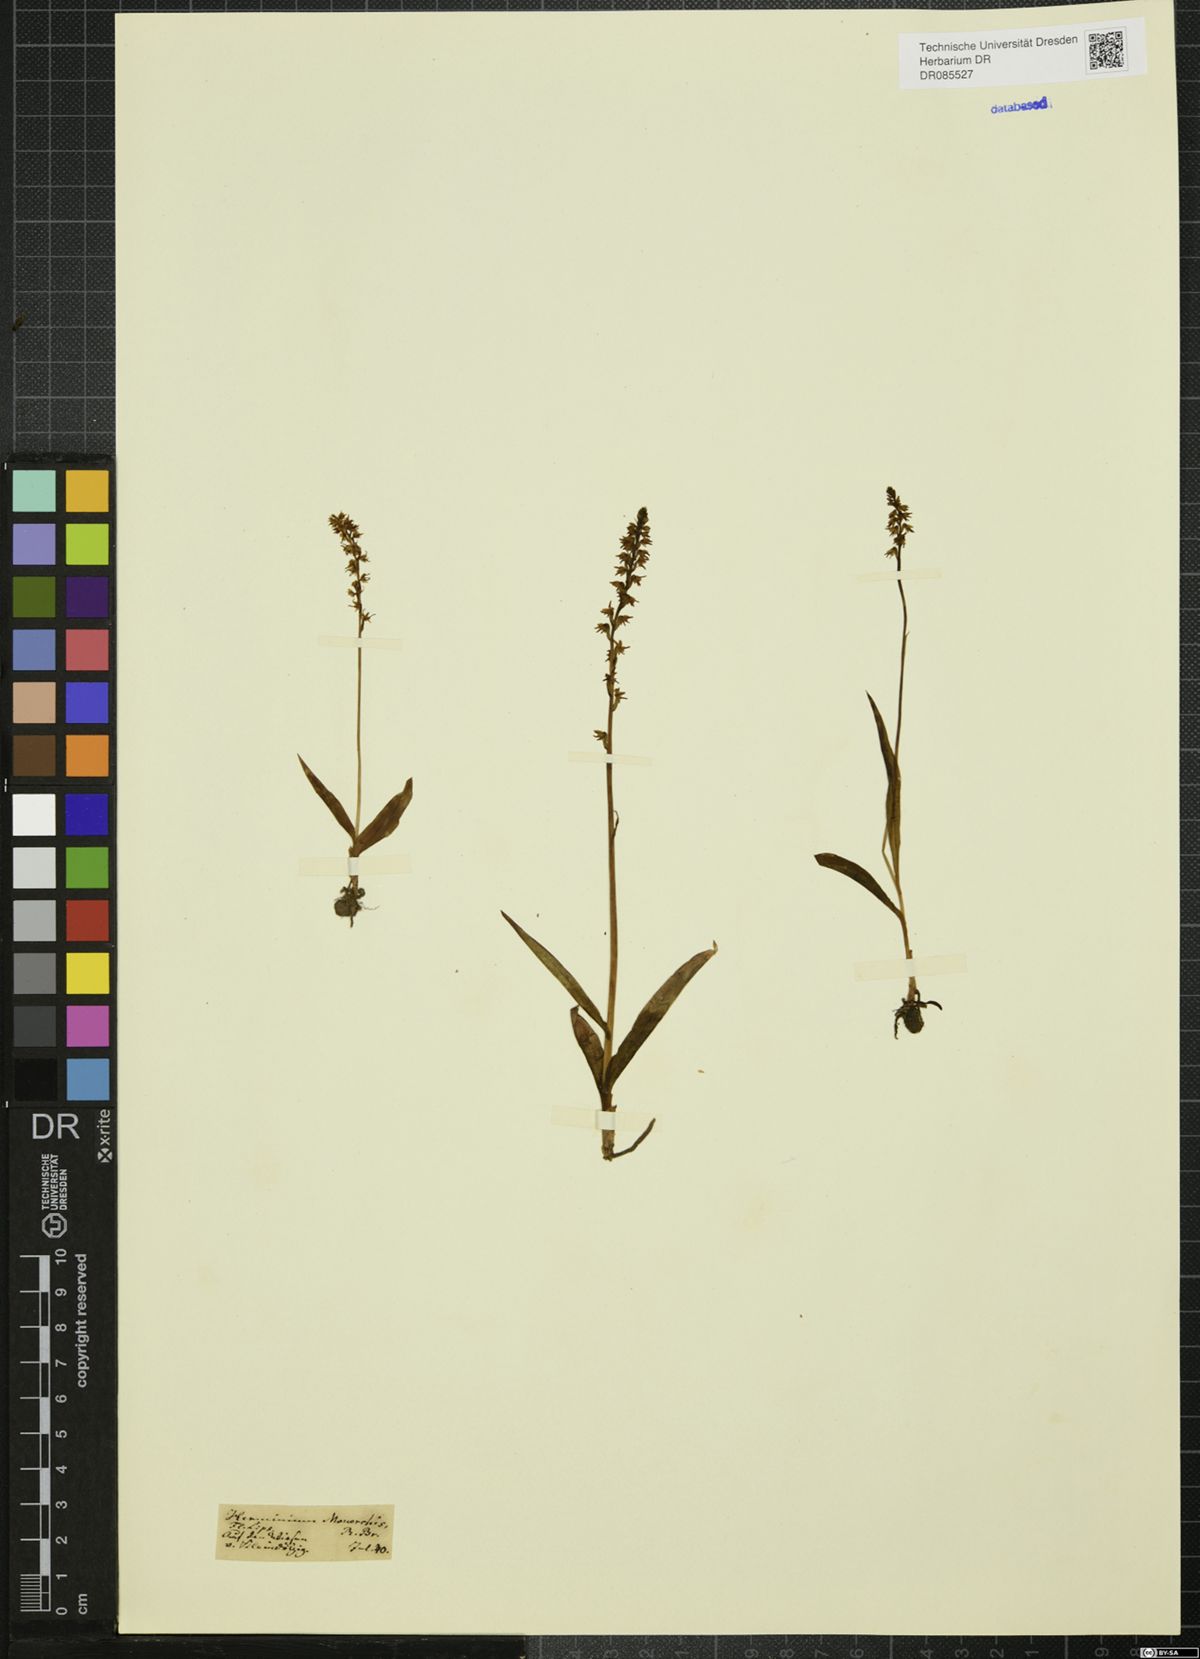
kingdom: Plantae
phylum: Tracheophyta
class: Liliopsida
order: Asparagales
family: Orchidaceae
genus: Herminium
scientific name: Herminium monorchis
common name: Musk orchid
